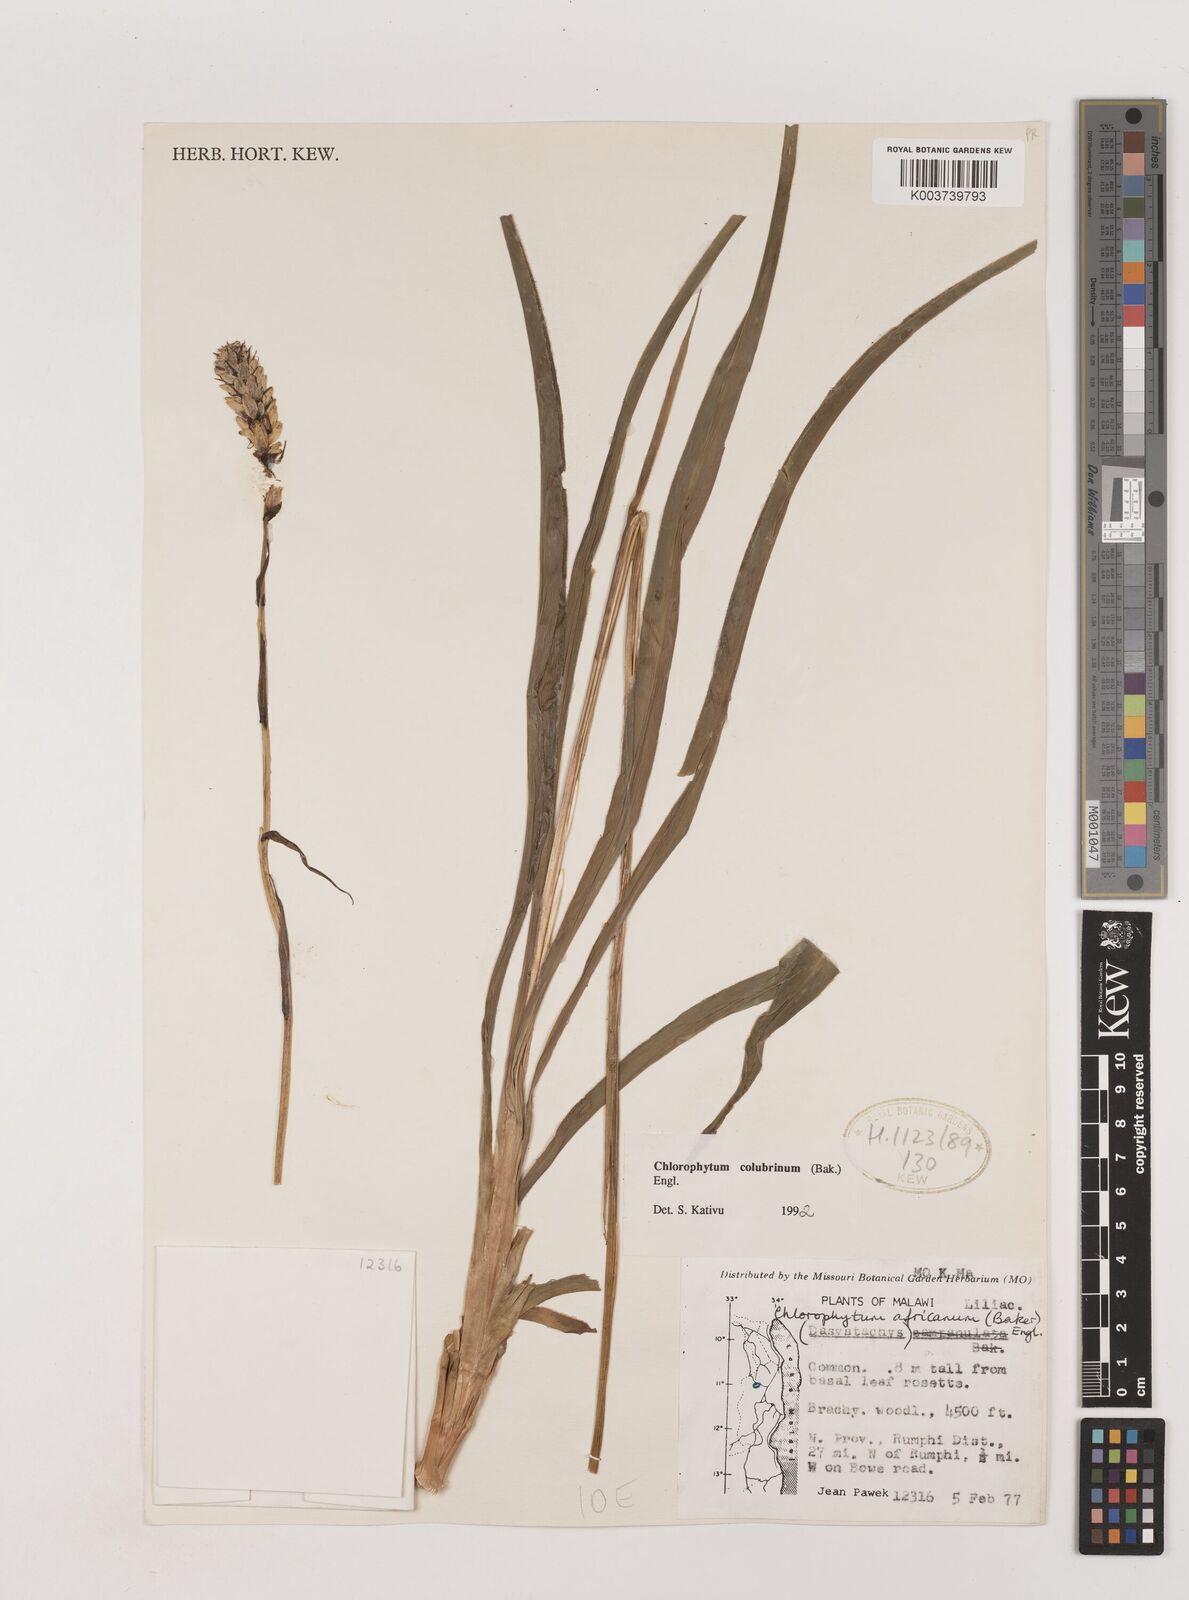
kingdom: Plantae
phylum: Tracheophyta
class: Liliopsida
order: Asparagales
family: Asparagaceae
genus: Chlorophytum
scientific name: Chlorophytum colubrinum
